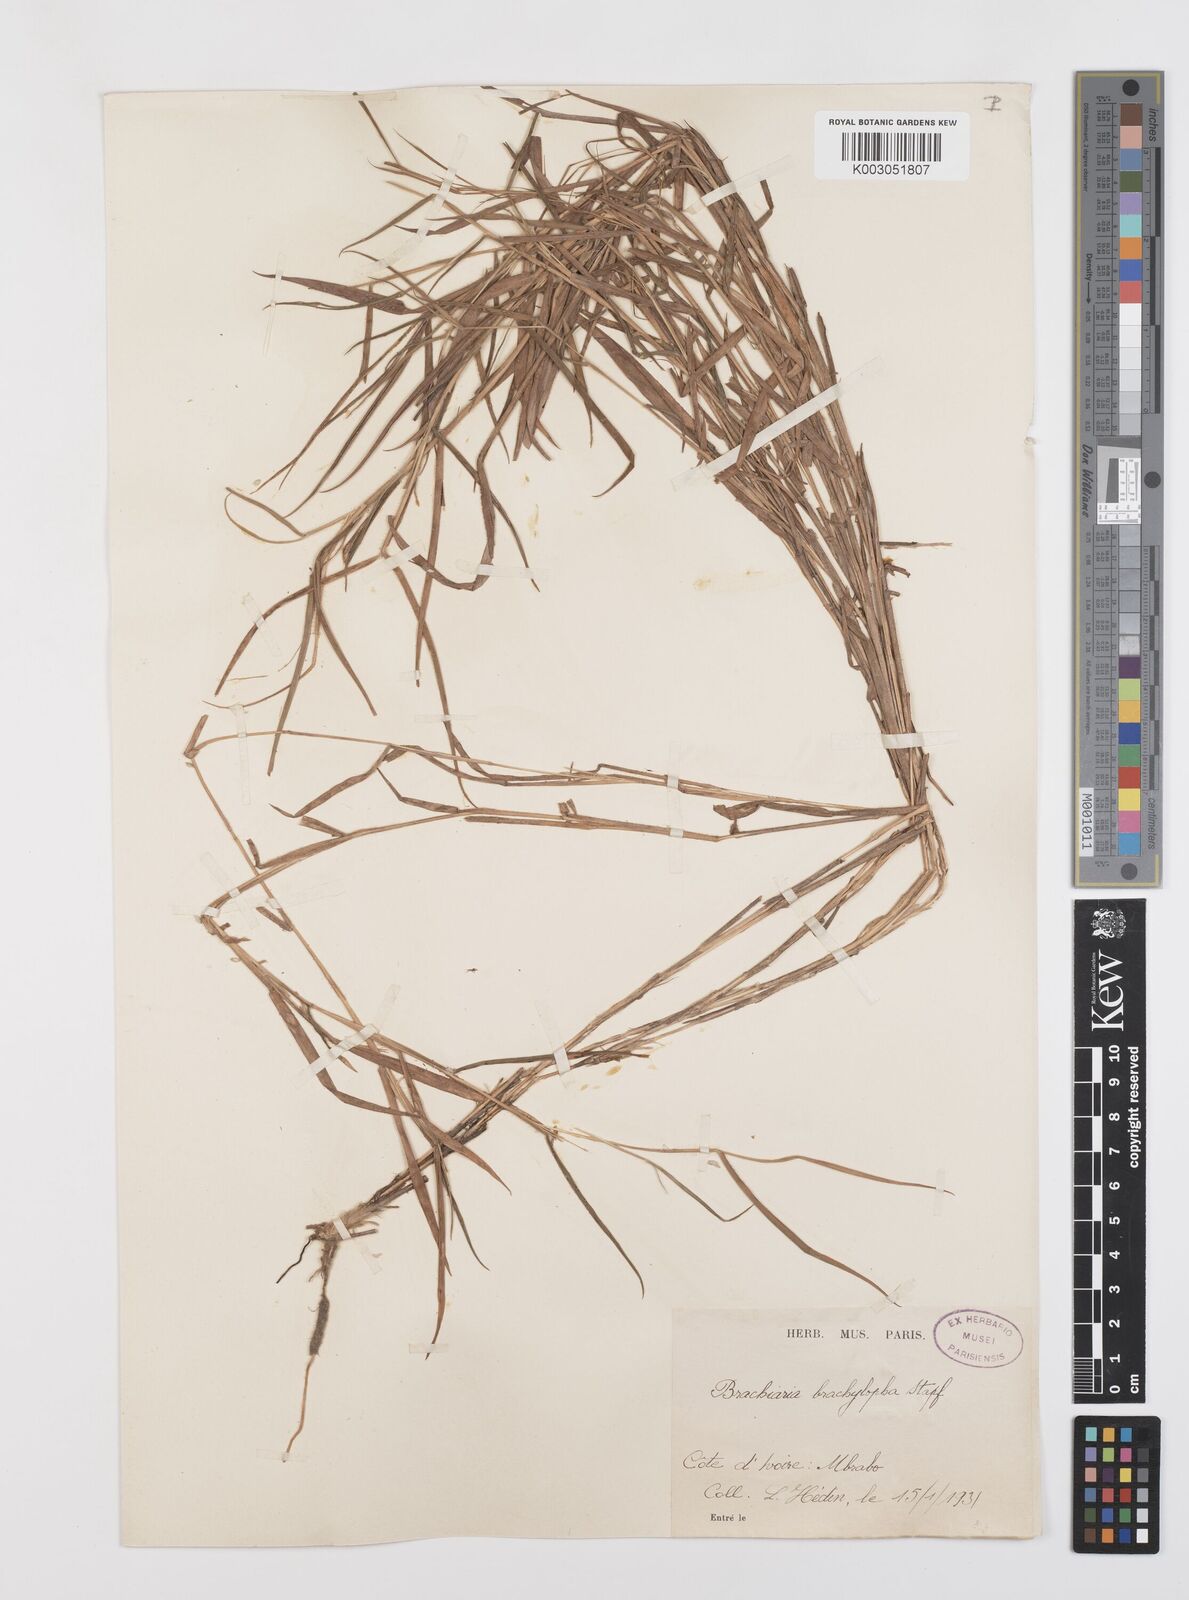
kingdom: Plantae
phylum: Tracheophyta
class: Liliopsida
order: Poales
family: Poaceae
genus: Urochloa
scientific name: Urochloa serrata
